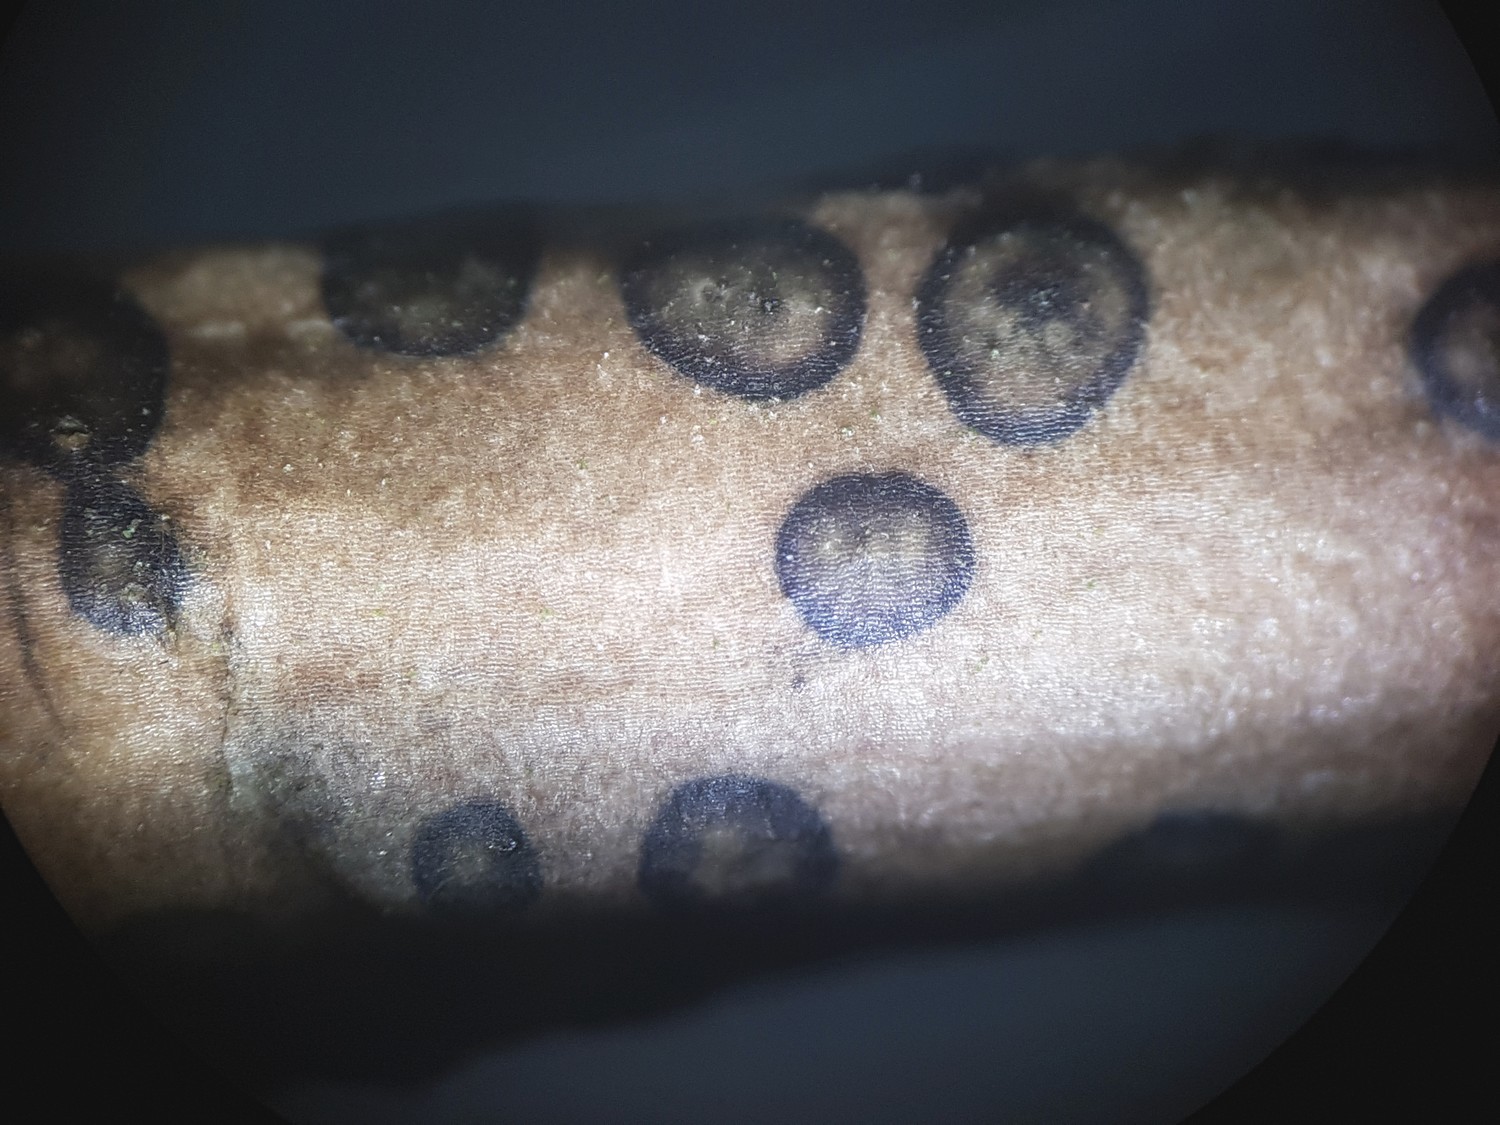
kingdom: Fungi
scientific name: Fungi
